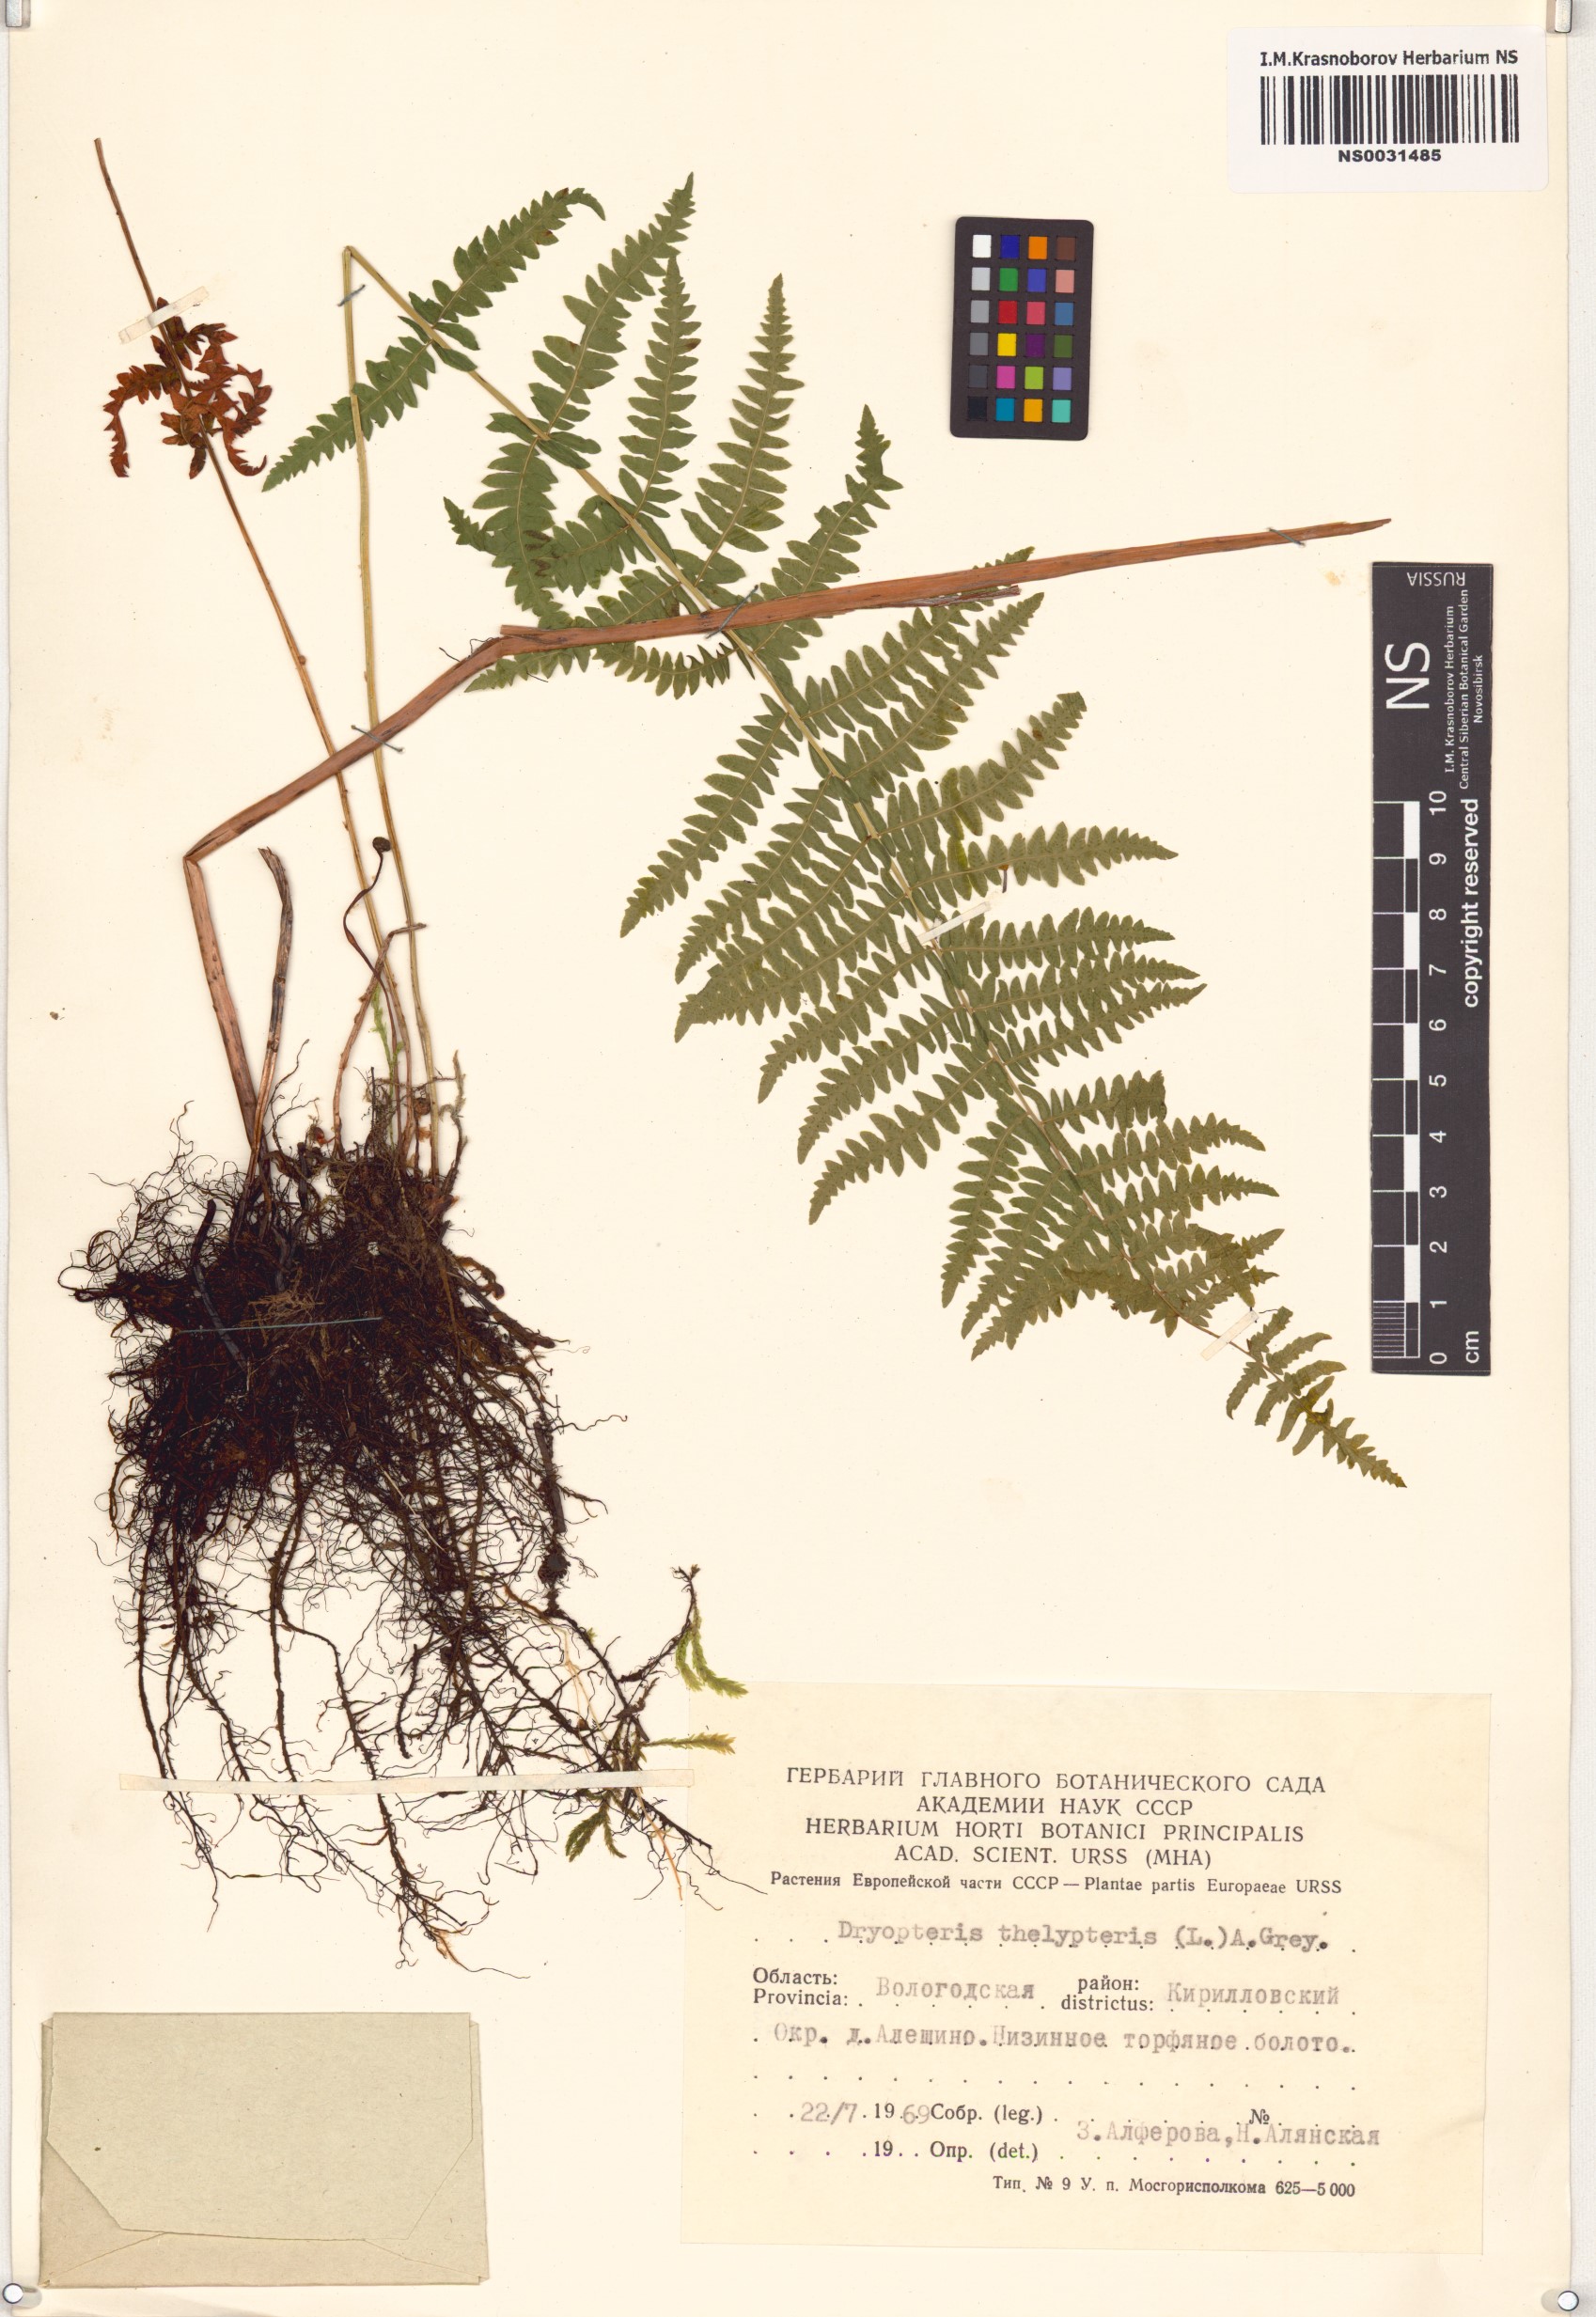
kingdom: Plantae
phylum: Tracheophyta
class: Polypodiopsida
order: Polypodiales
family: Thelypteridaceae
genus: Thelypteris
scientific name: Thelypteris palustris
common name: Marsh fern
